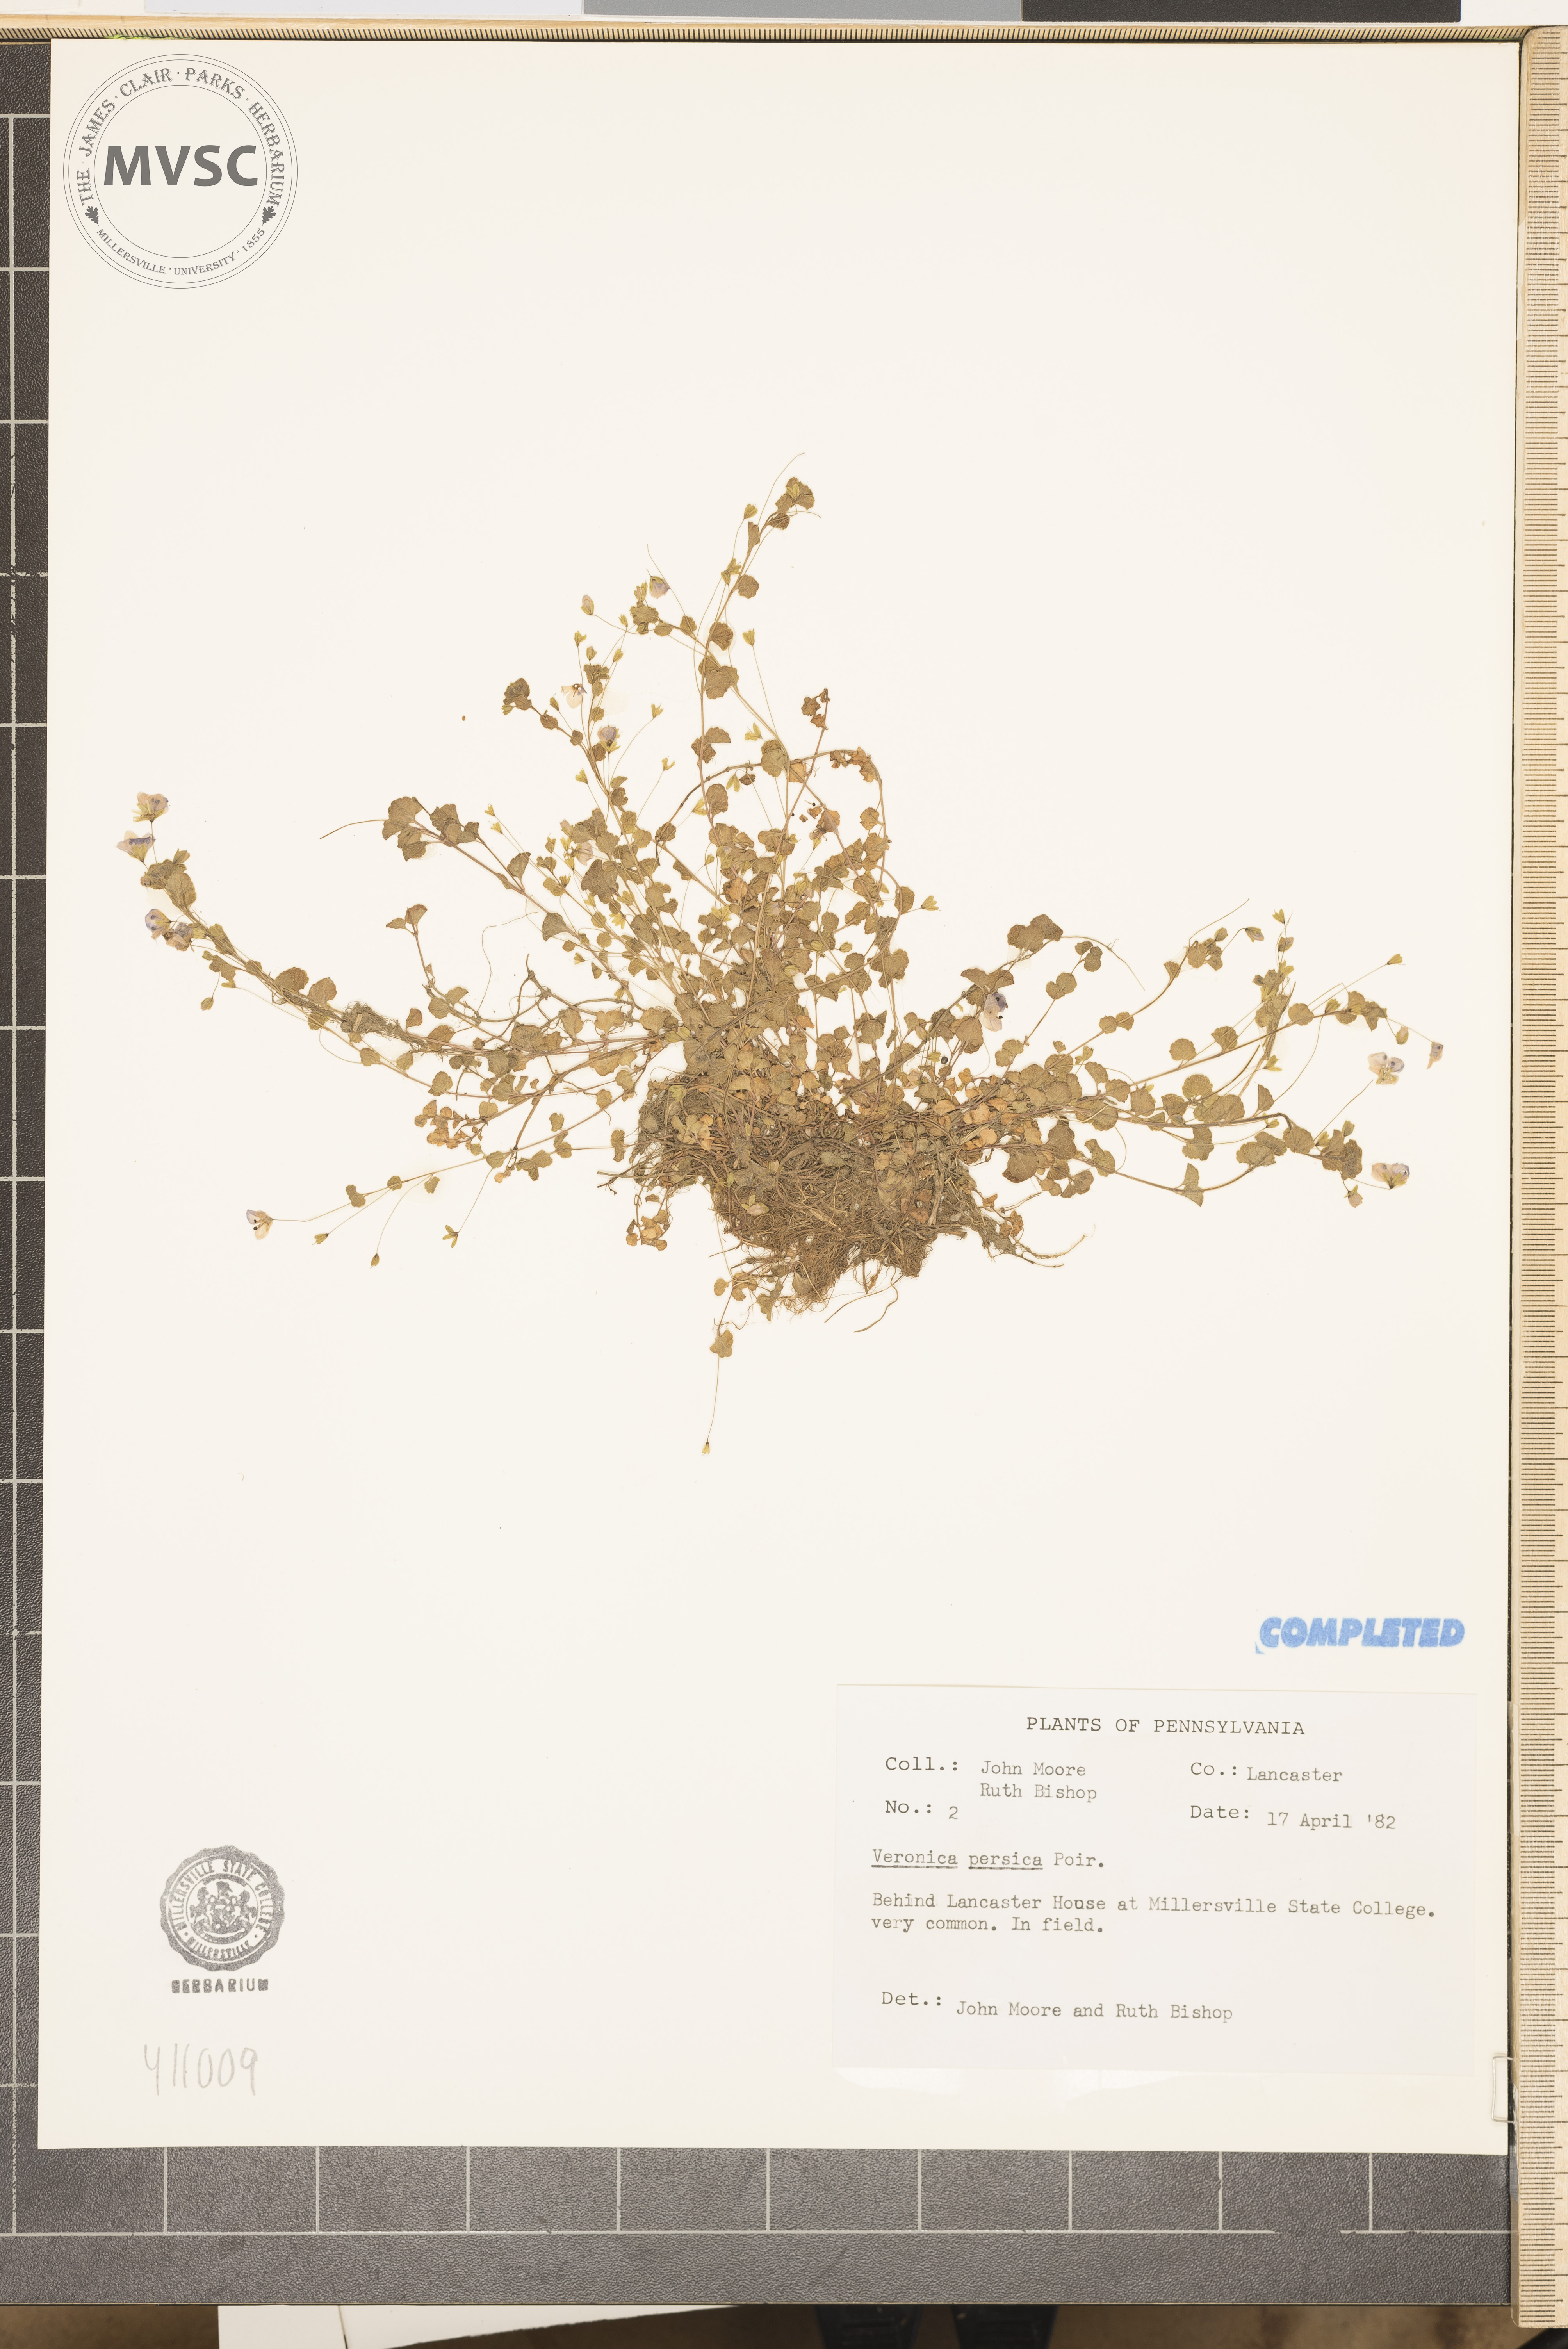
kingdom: Plantae
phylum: Tracheophyta
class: Magnoliopsida
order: Lamiales
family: Plantaginaceae
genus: Veronica
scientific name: Veronica persica
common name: Speedwell
